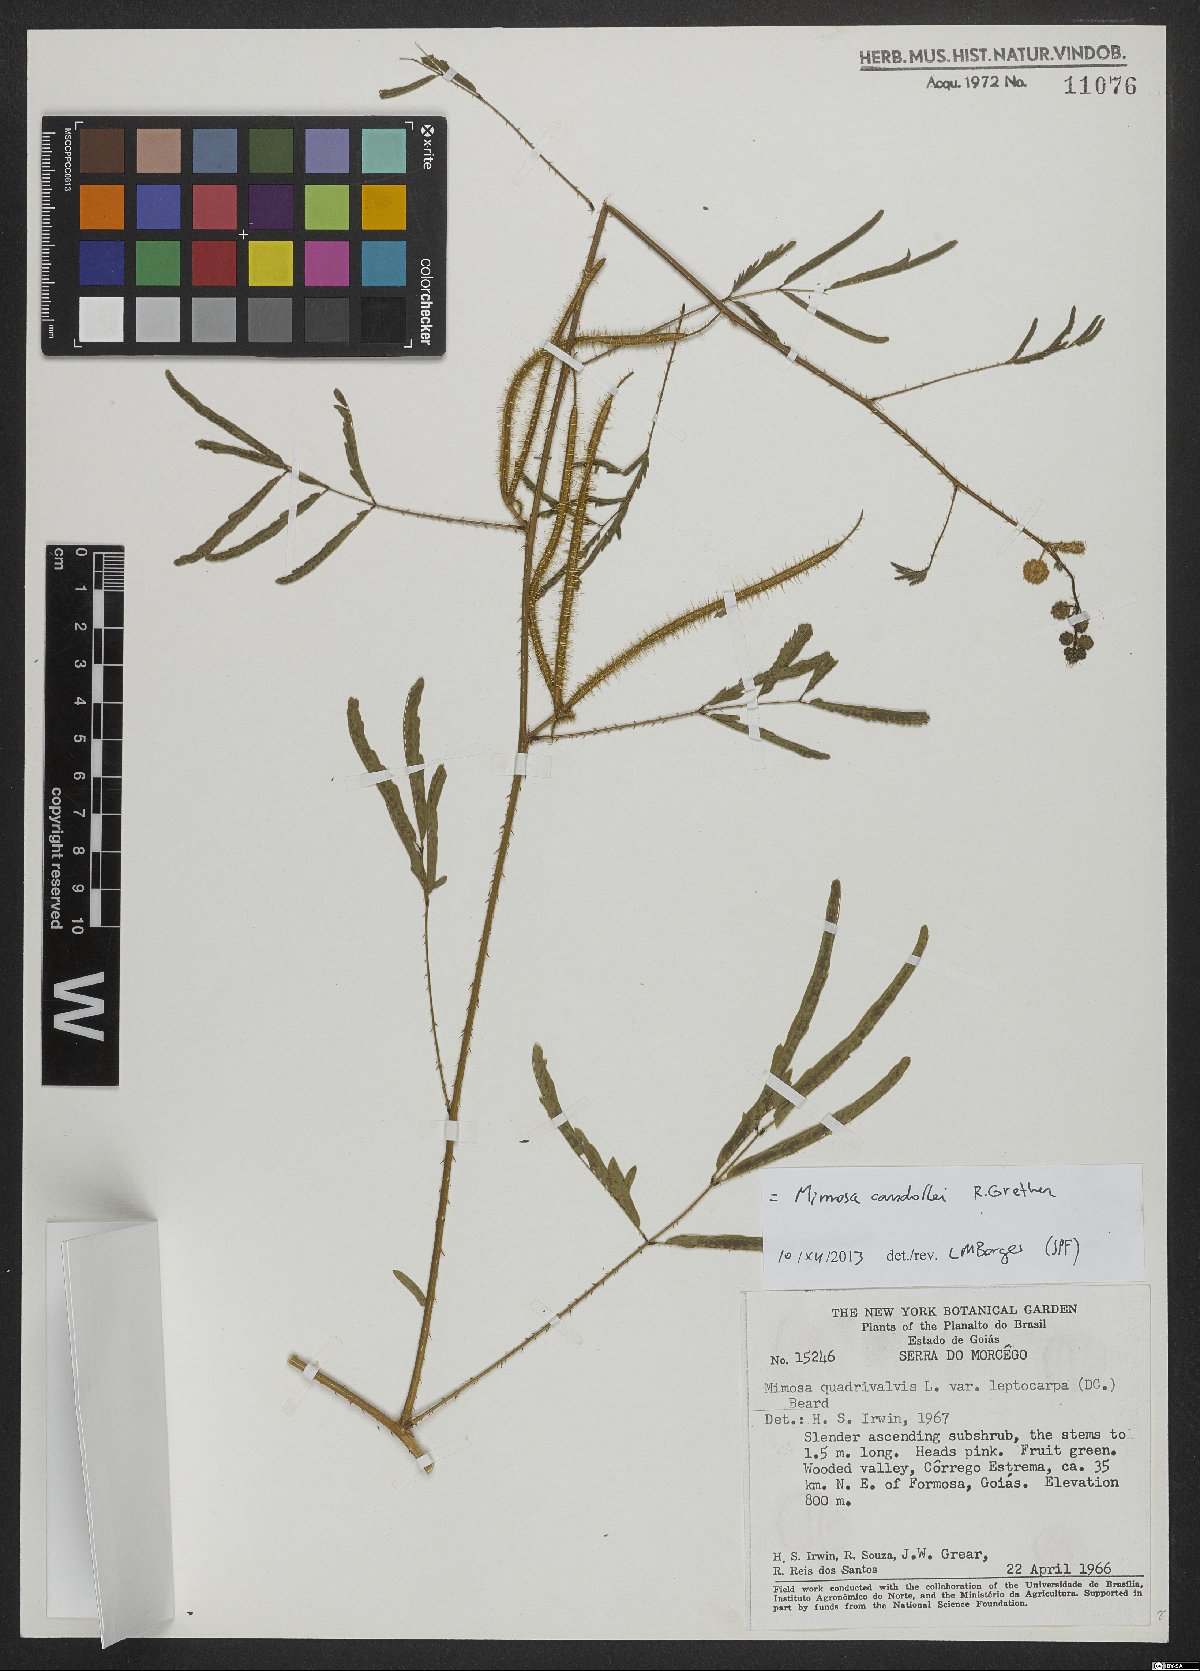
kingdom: Plantae
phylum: Tracheophyta
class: Magnoliopsida
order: Fabales
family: Fabaceae
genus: Mimosa
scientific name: Mimosa candollei
